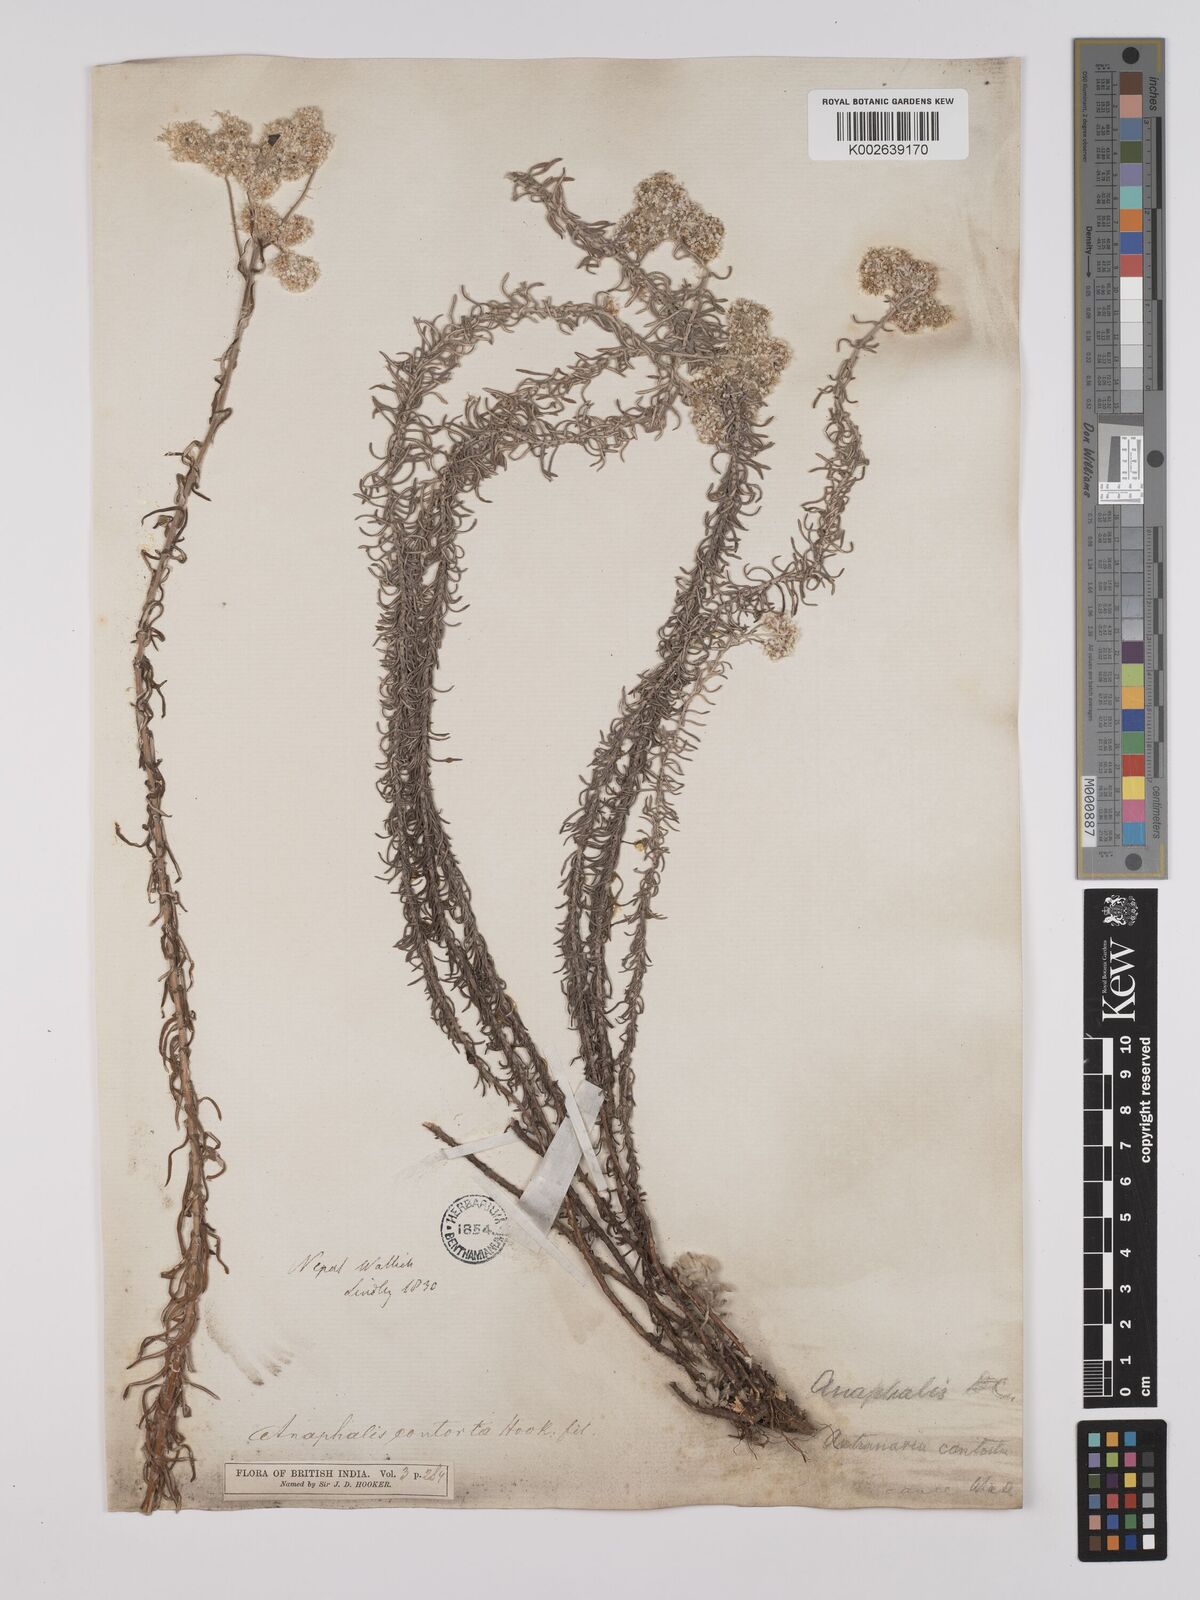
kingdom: Plantae
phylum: Tracheophyta
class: Magnoliopsida
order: Asterales
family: Asteraceae
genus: Anaphalis
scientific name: Anaphalis contorta
